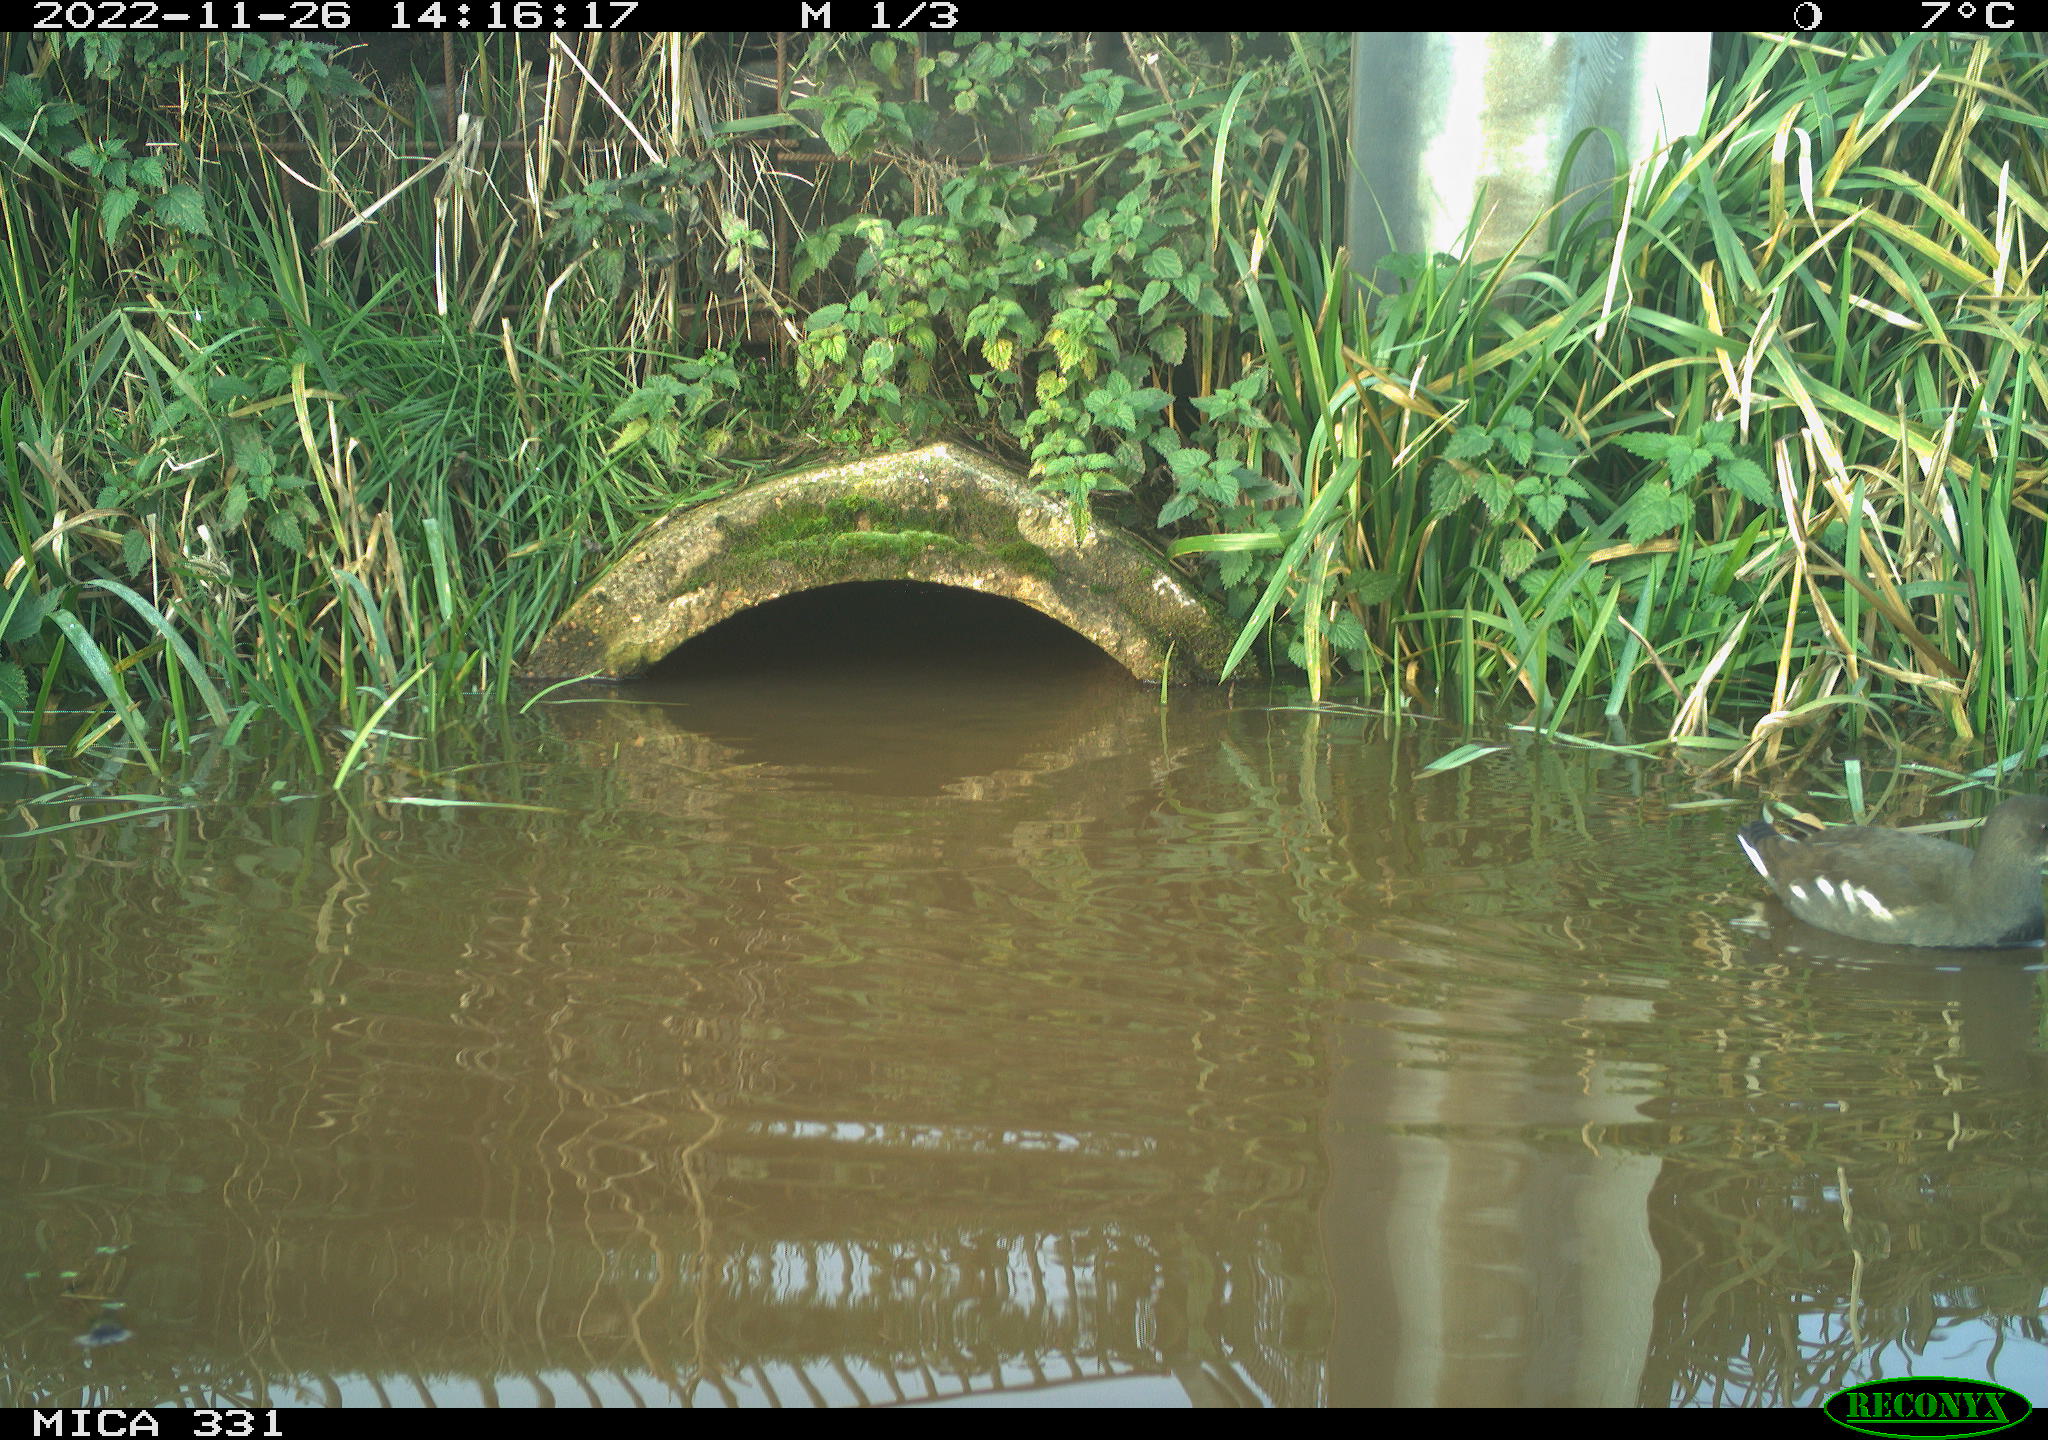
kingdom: Animalia
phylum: Chordata
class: Aves
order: Gruiformes
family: Rallidae
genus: Gallinula
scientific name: Gallinula chloropus
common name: Common moorhen
